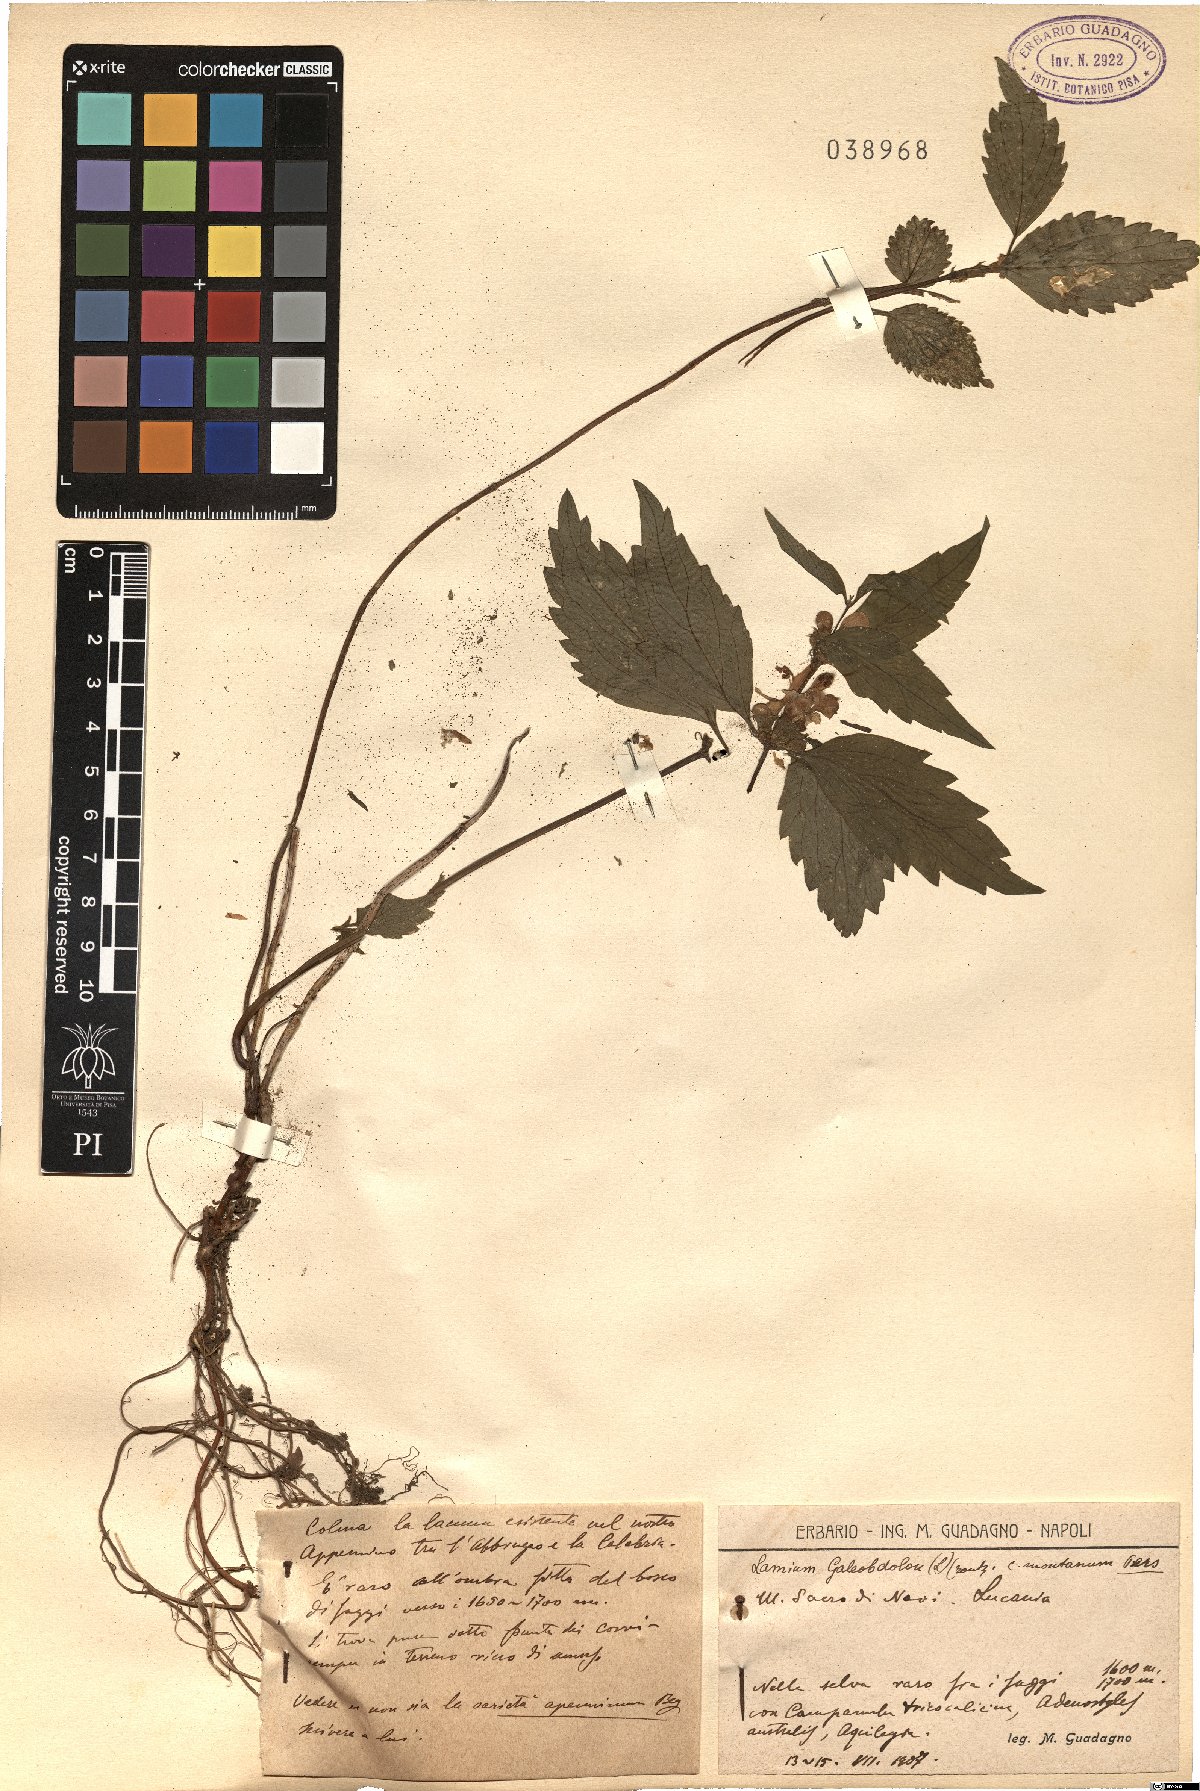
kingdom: Plantae
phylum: Tracheophyta
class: Magnoliopsida
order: Lamiales
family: Lamiaceae
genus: Lamium
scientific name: Lamium galeobdolon
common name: Yellow archangel
